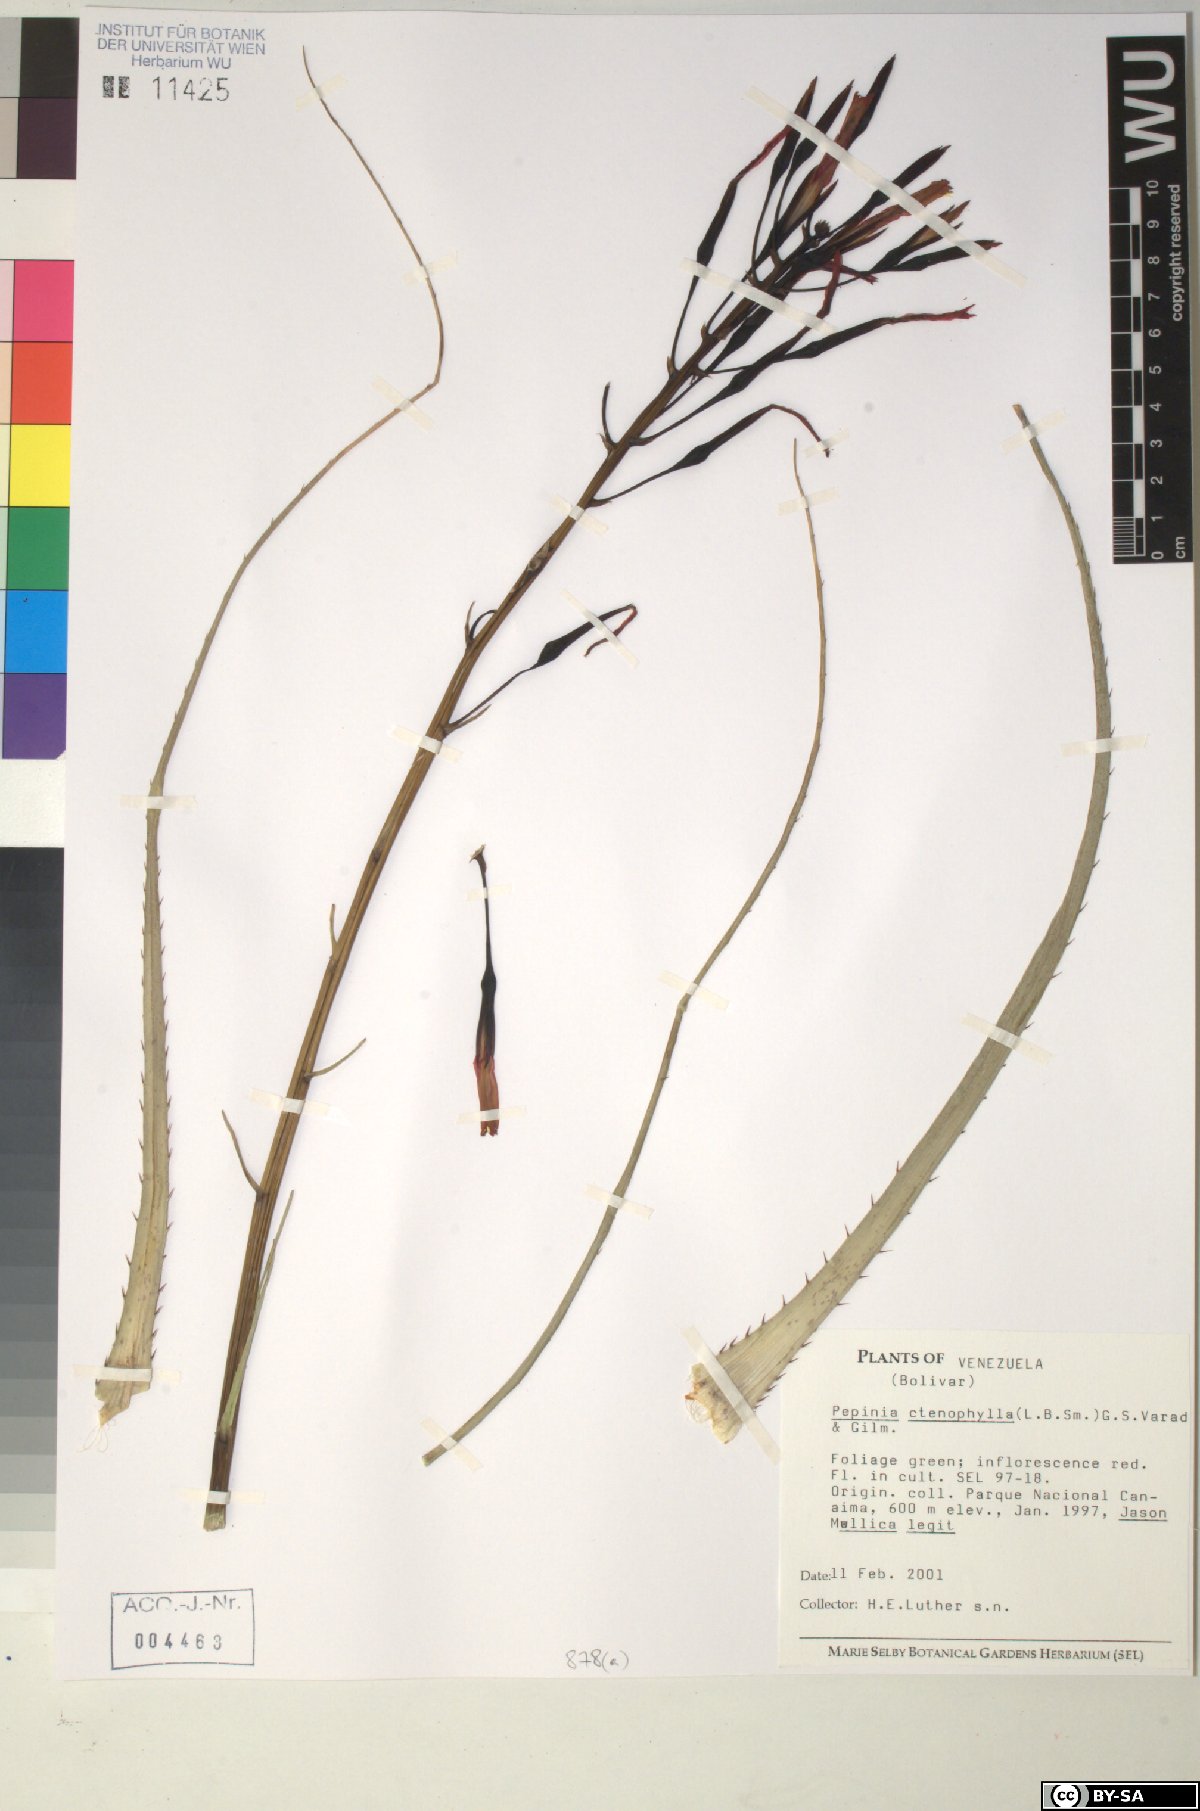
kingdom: Plantae
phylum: Tracheophyta
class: Liliopsida
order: Poales
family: Bromeliaceae
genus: Pepinia
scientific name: Pepinia
